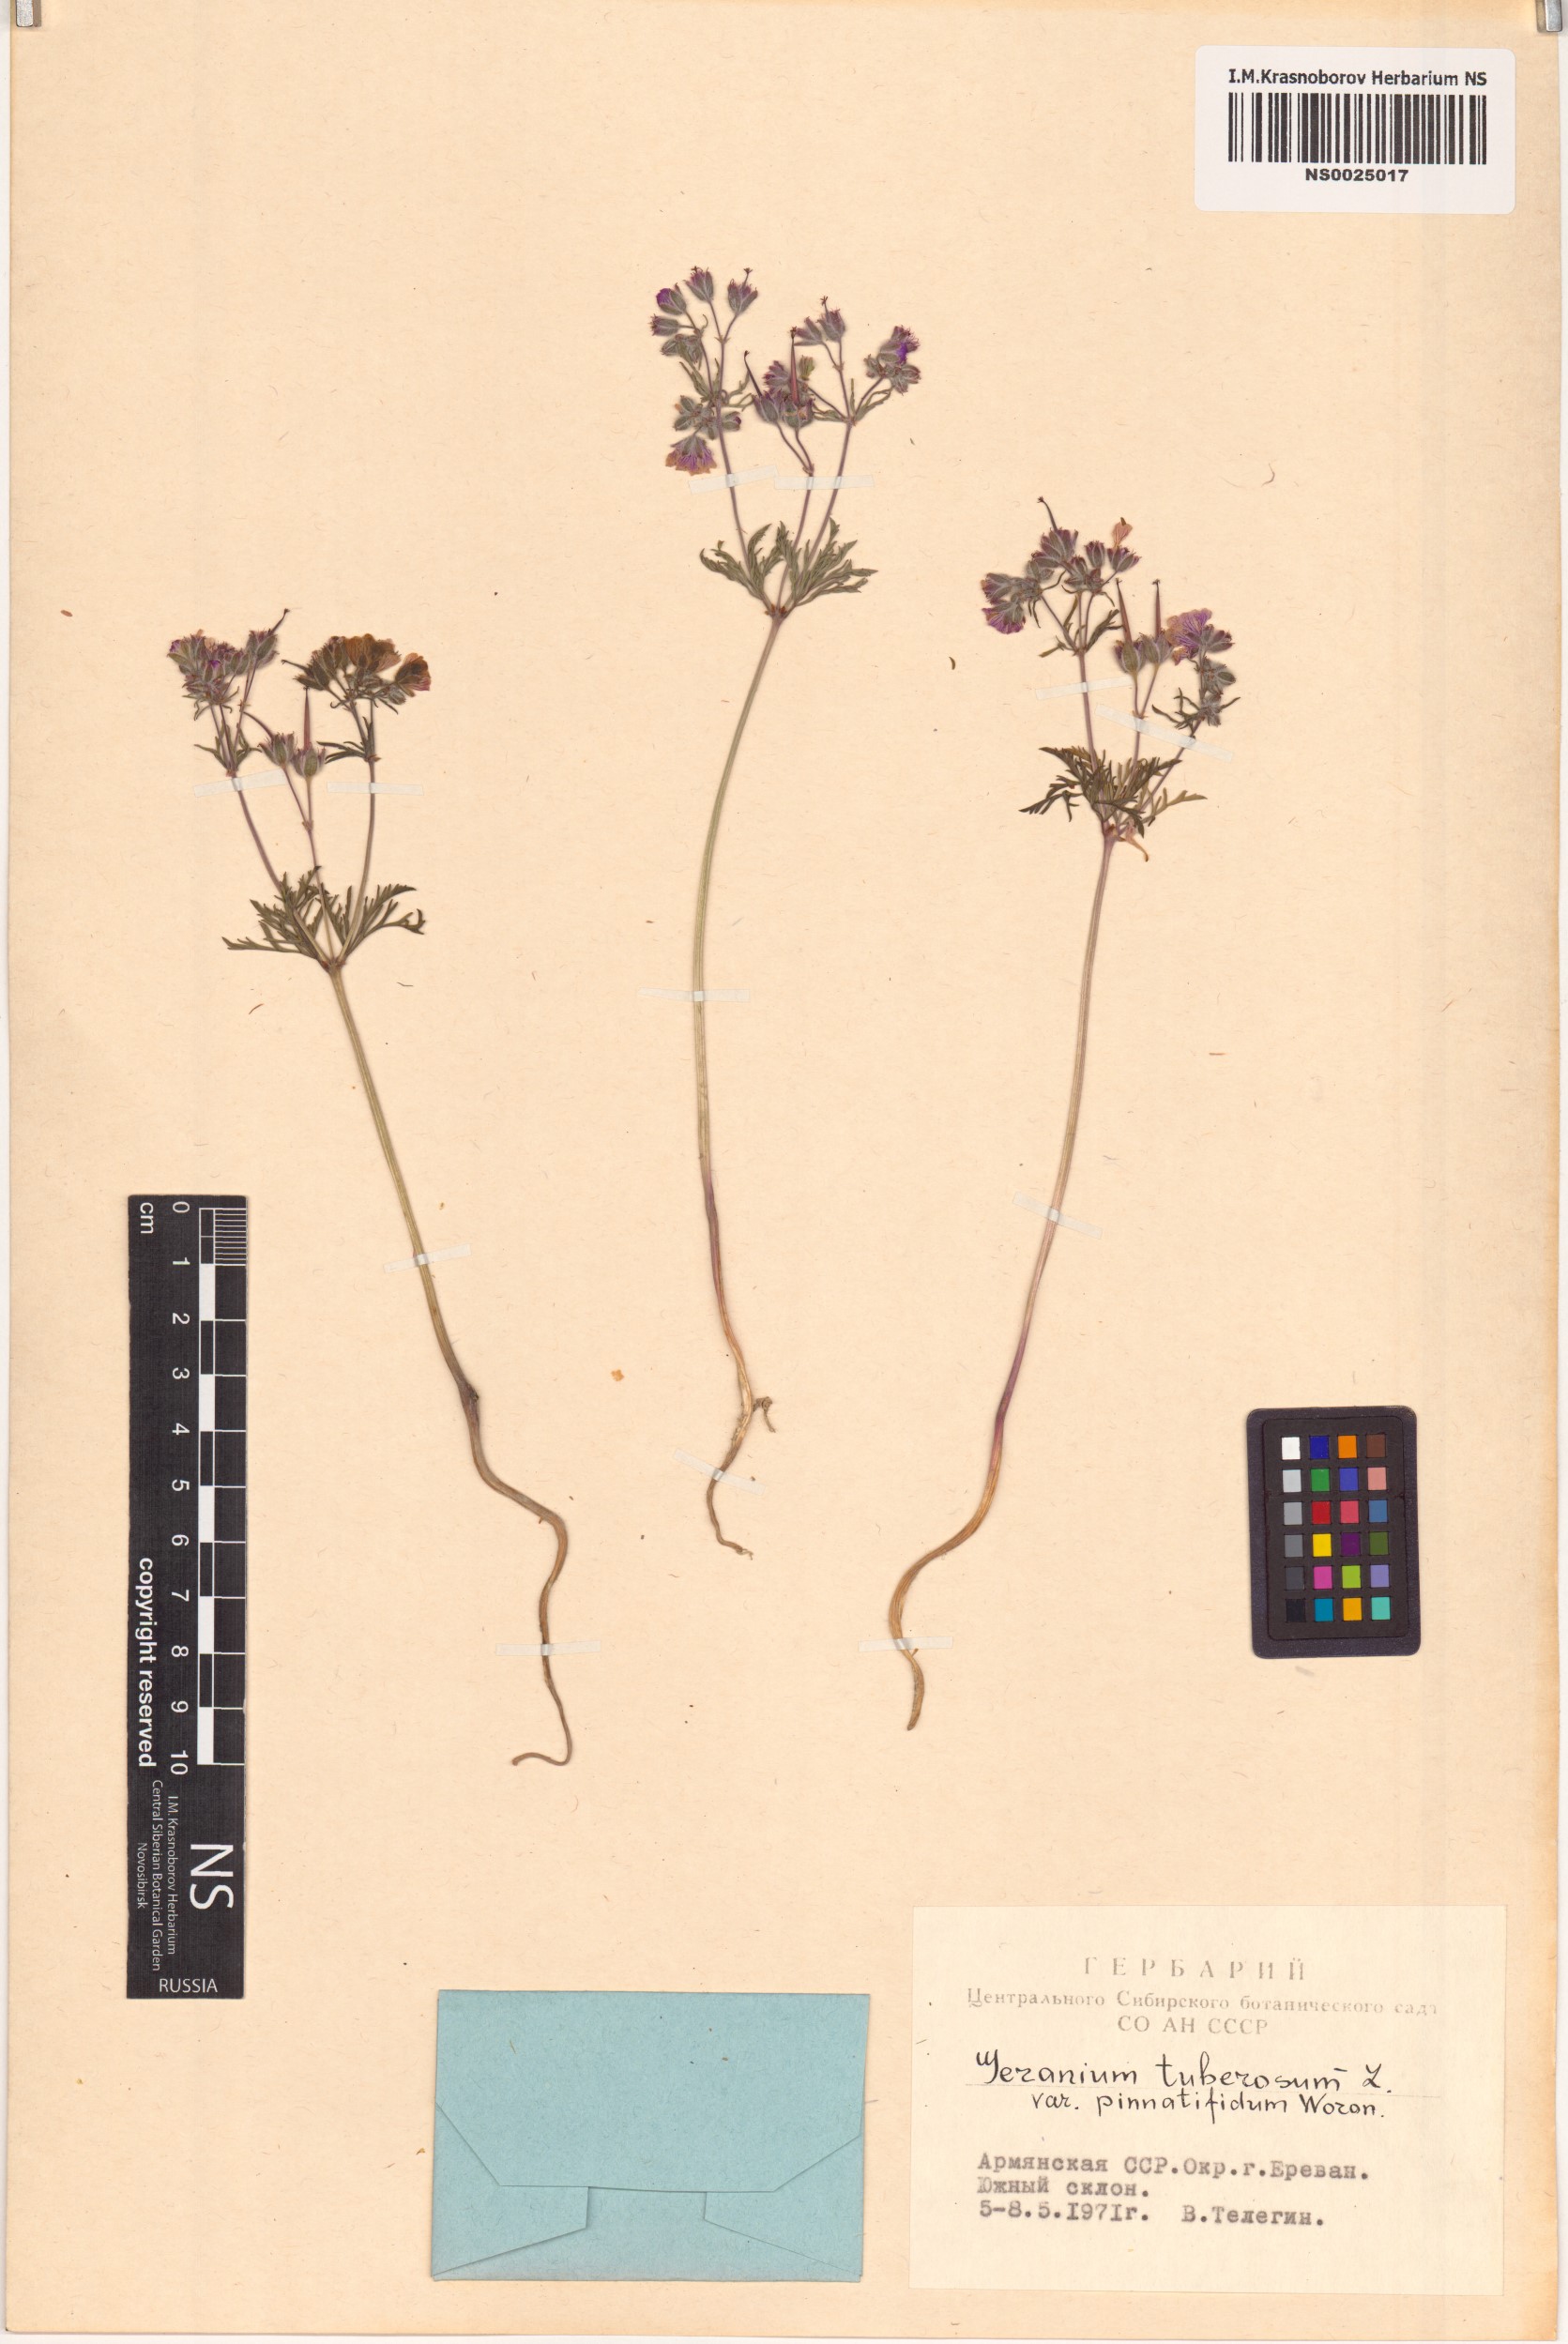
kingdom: Plantae
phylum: Tracheophyta
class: Magnoliopsida
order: Geraniales
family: Geraniaceae
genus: Geranium
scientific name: Geranium tuberosum
